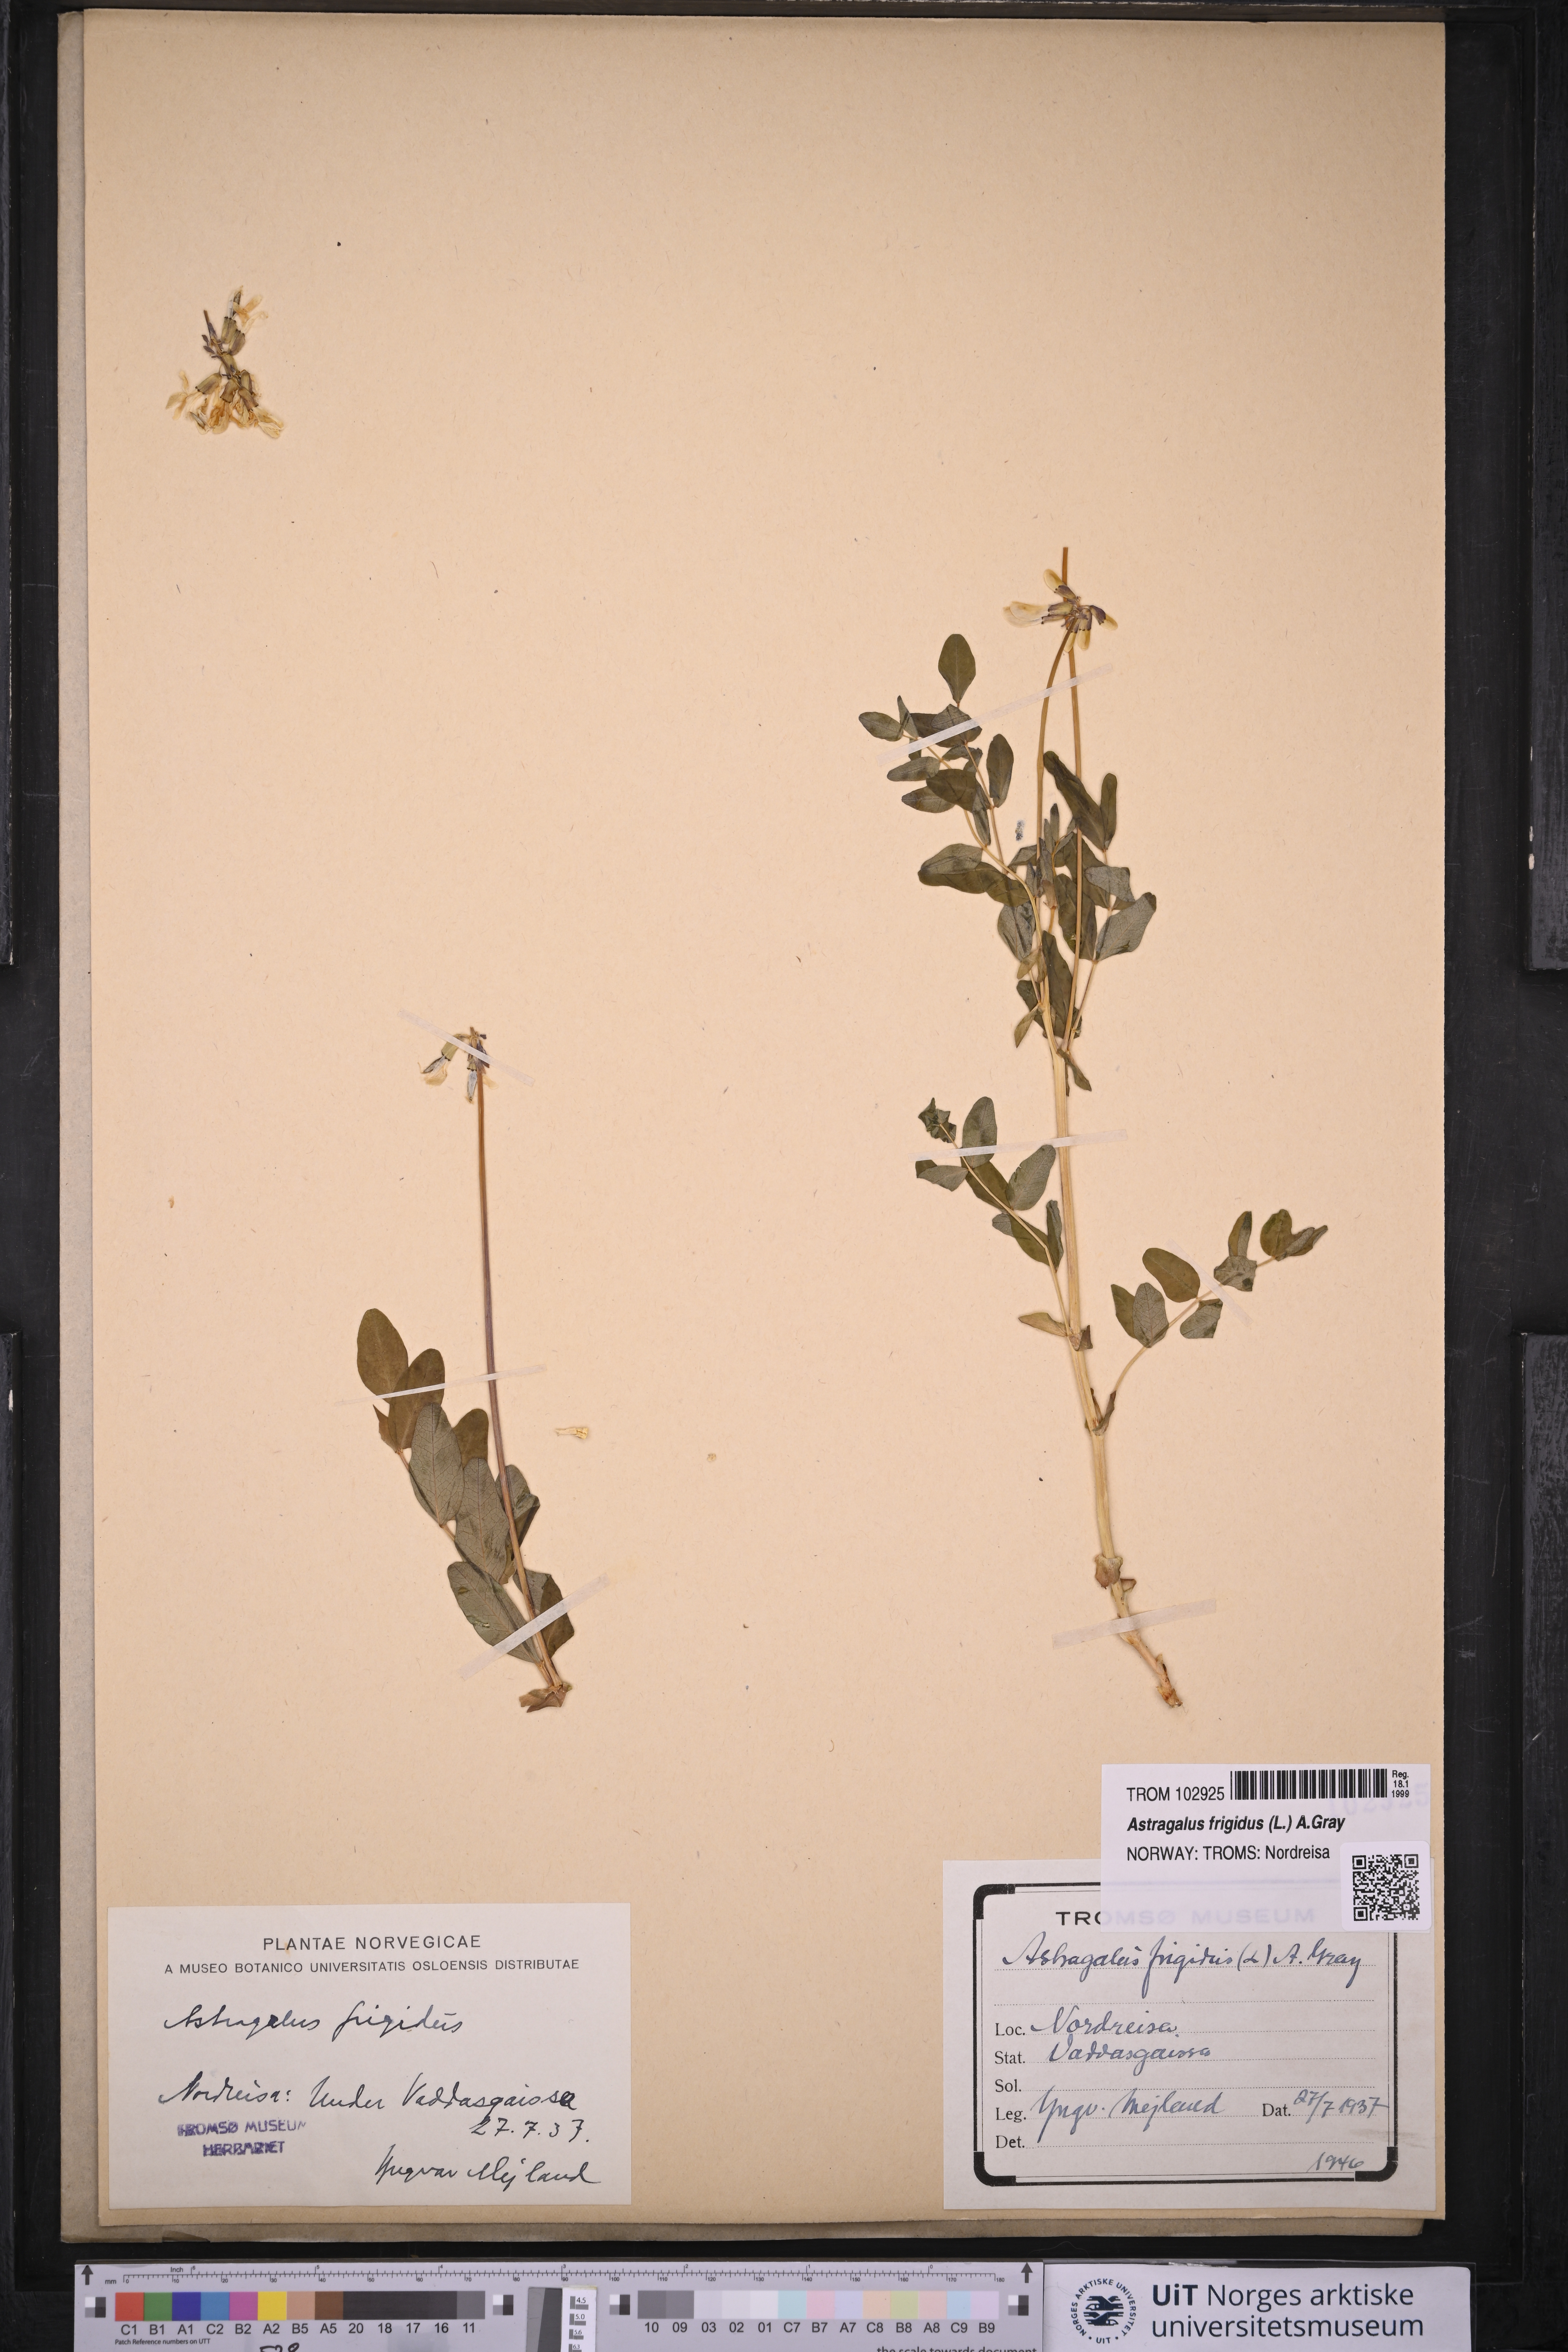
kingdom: Plantae
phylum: Tracheophyta
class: Magnoliopsida
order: Fabales
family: Fabaceae
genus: Astragalus
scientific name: Astragalus frigidus
